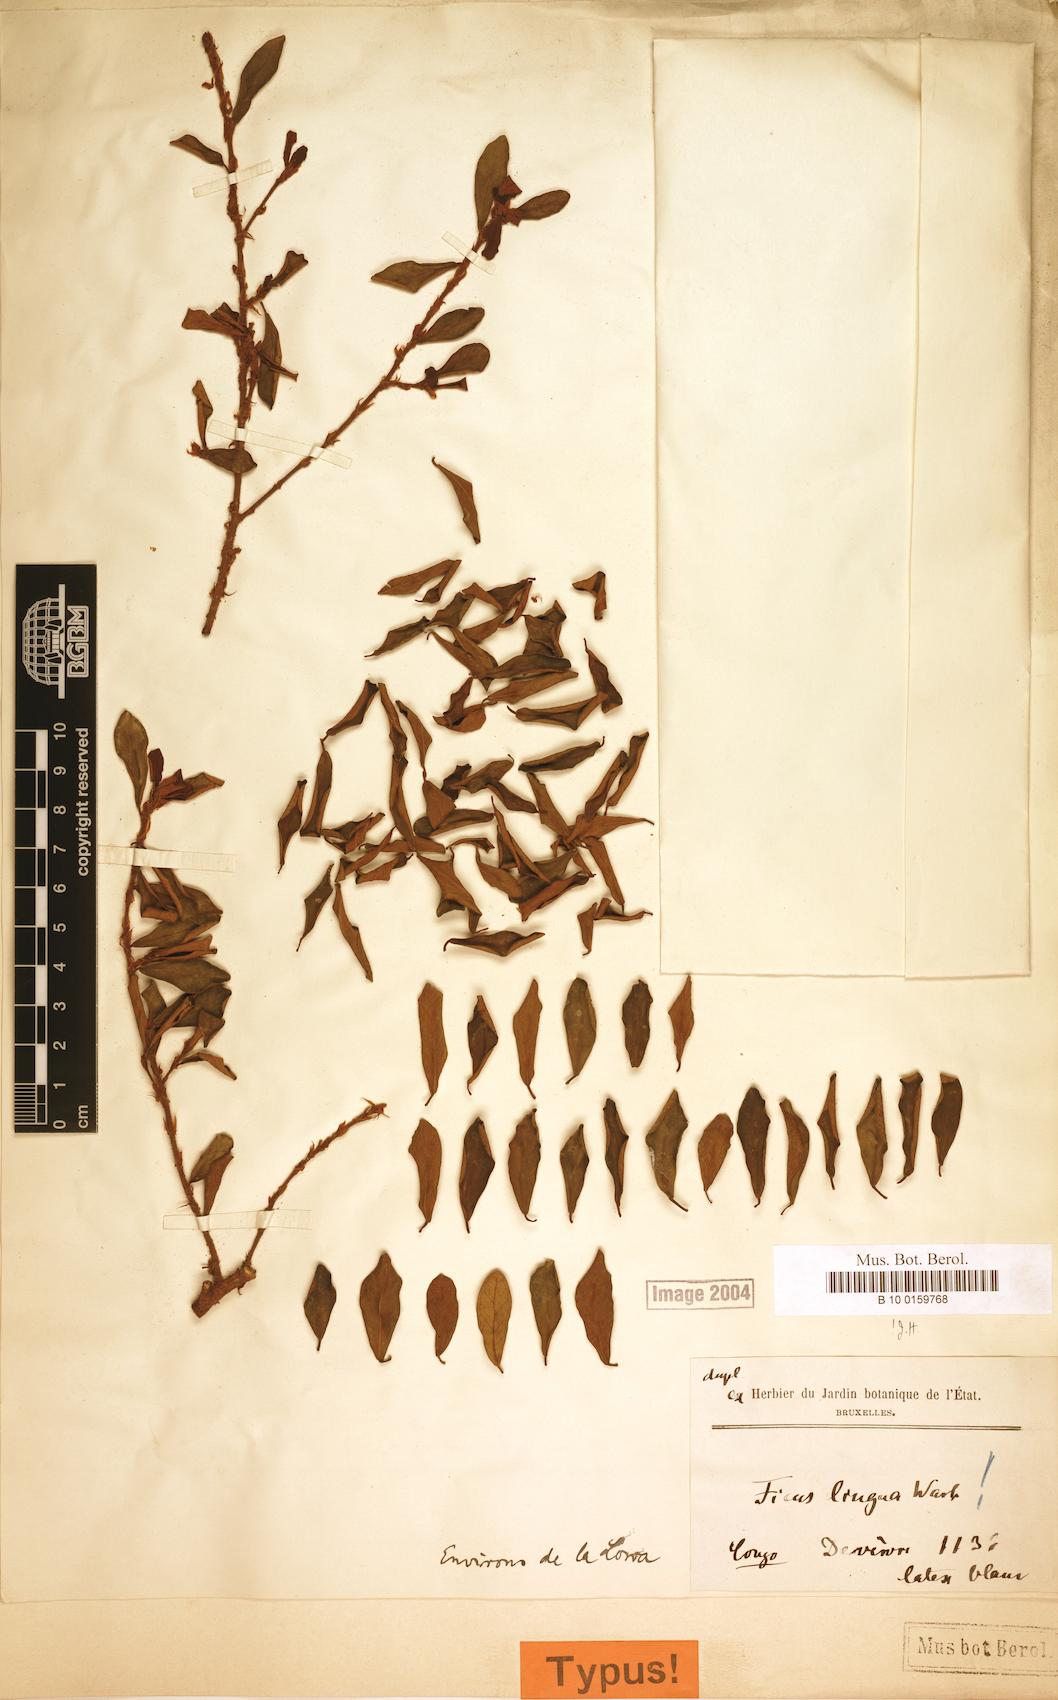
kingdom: Plantae
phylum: Tracheophyta
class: Magnoliopsida
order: Rosales
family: Moraceae
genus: Ficus
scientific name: Ficus lingua
